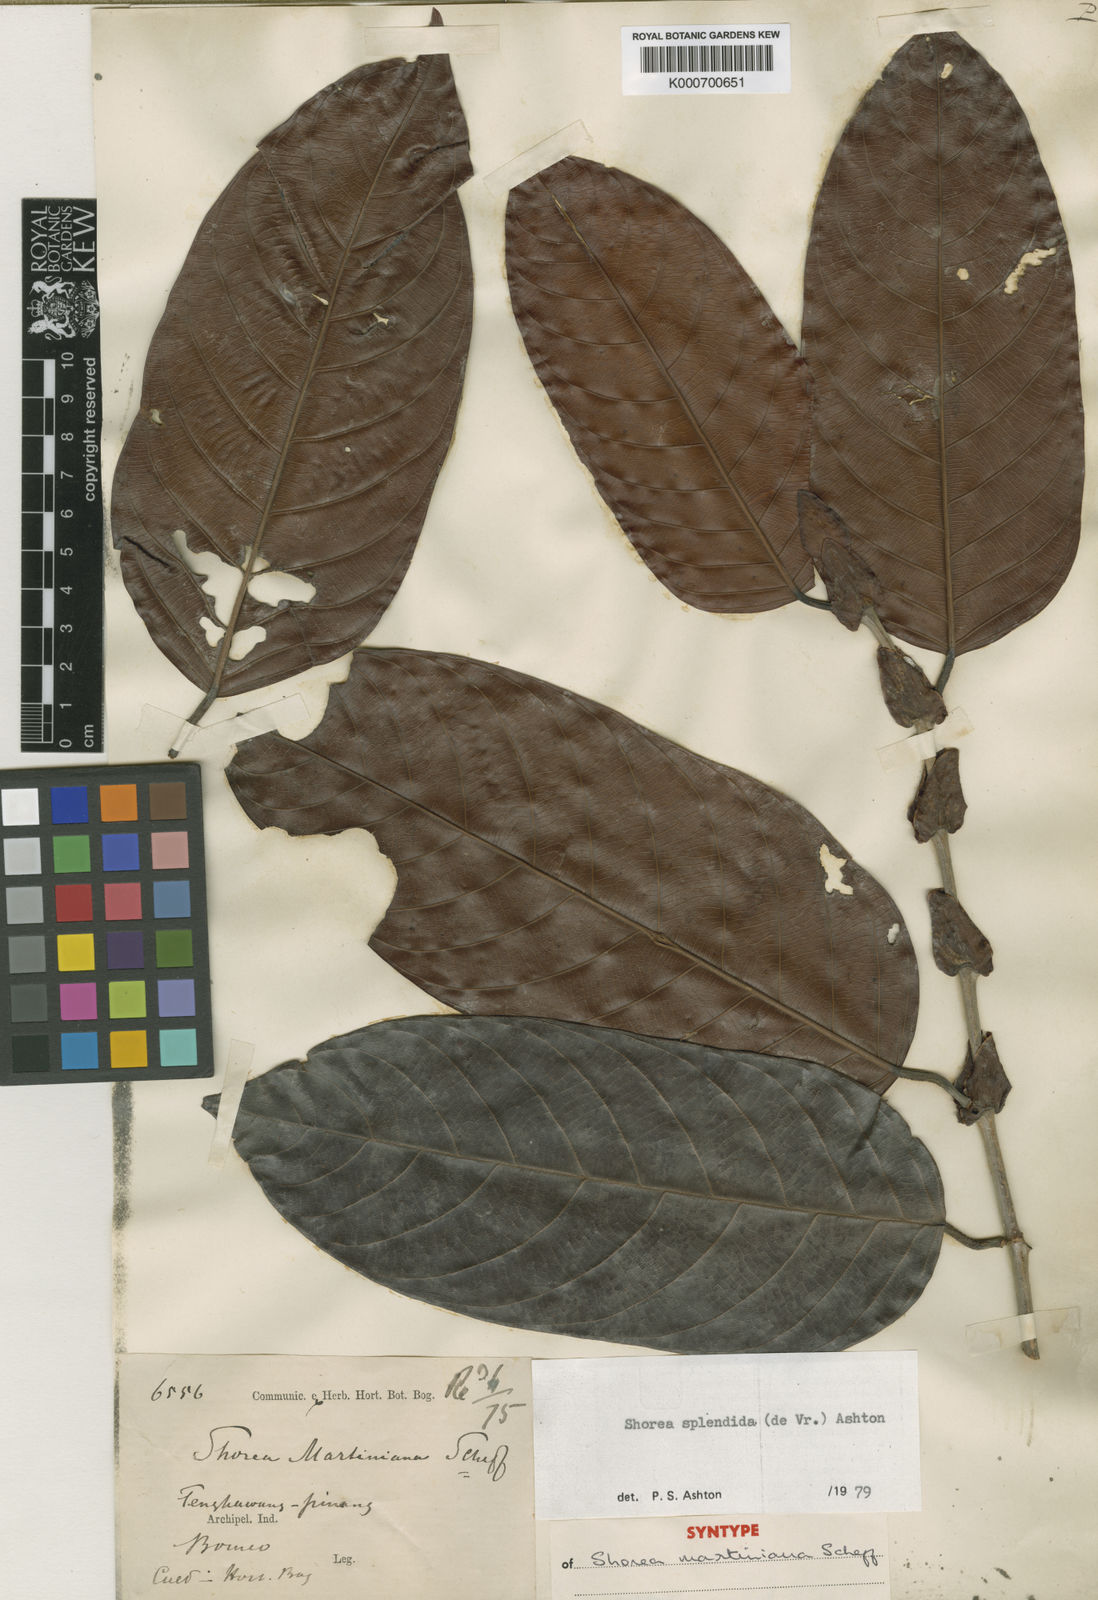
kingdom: Plantae
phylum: Tracheophyta
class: Magnoliopsida
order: Malvales
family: Dipterocarpaceae
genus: Shorea
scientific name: Shorea splendida
